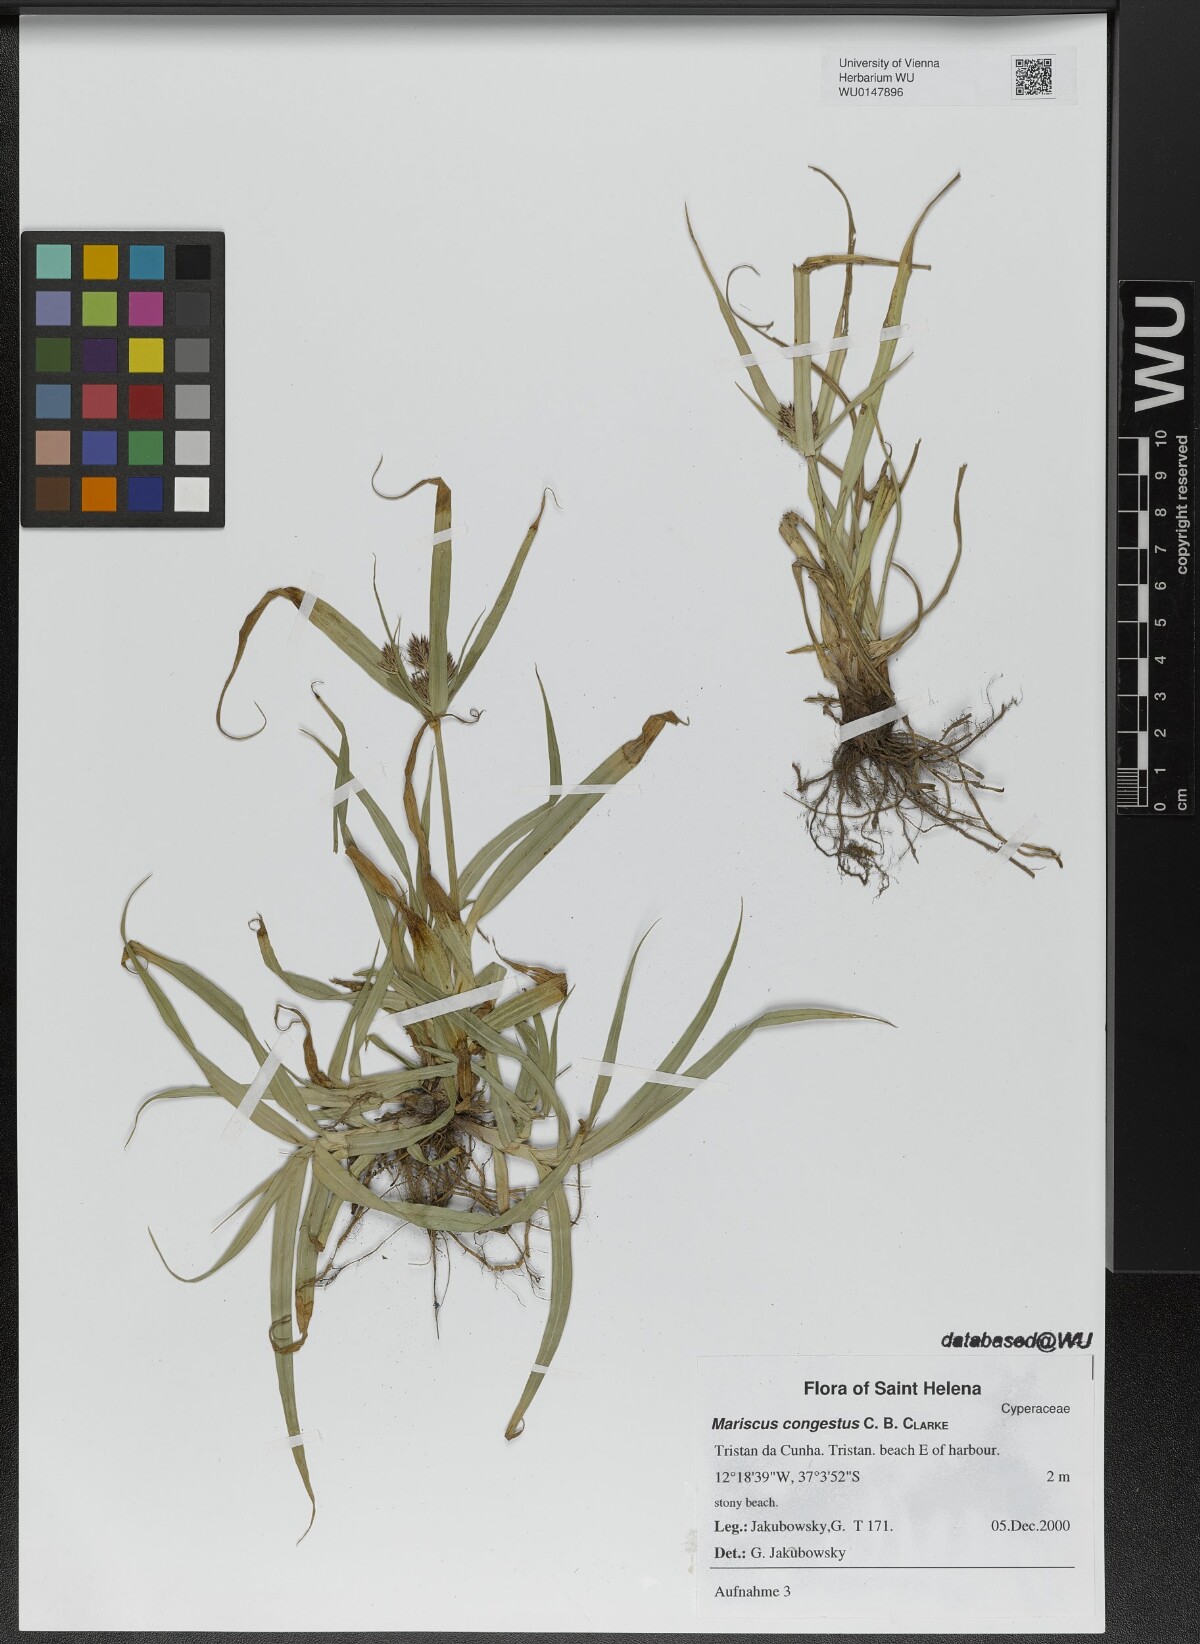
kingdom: Plantae
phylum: Tracheophyta
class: Liliopsida
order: Poales
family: Cyperaceae
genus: Cyperus
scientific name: Cyperus congestus
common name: Dense flat sedge
